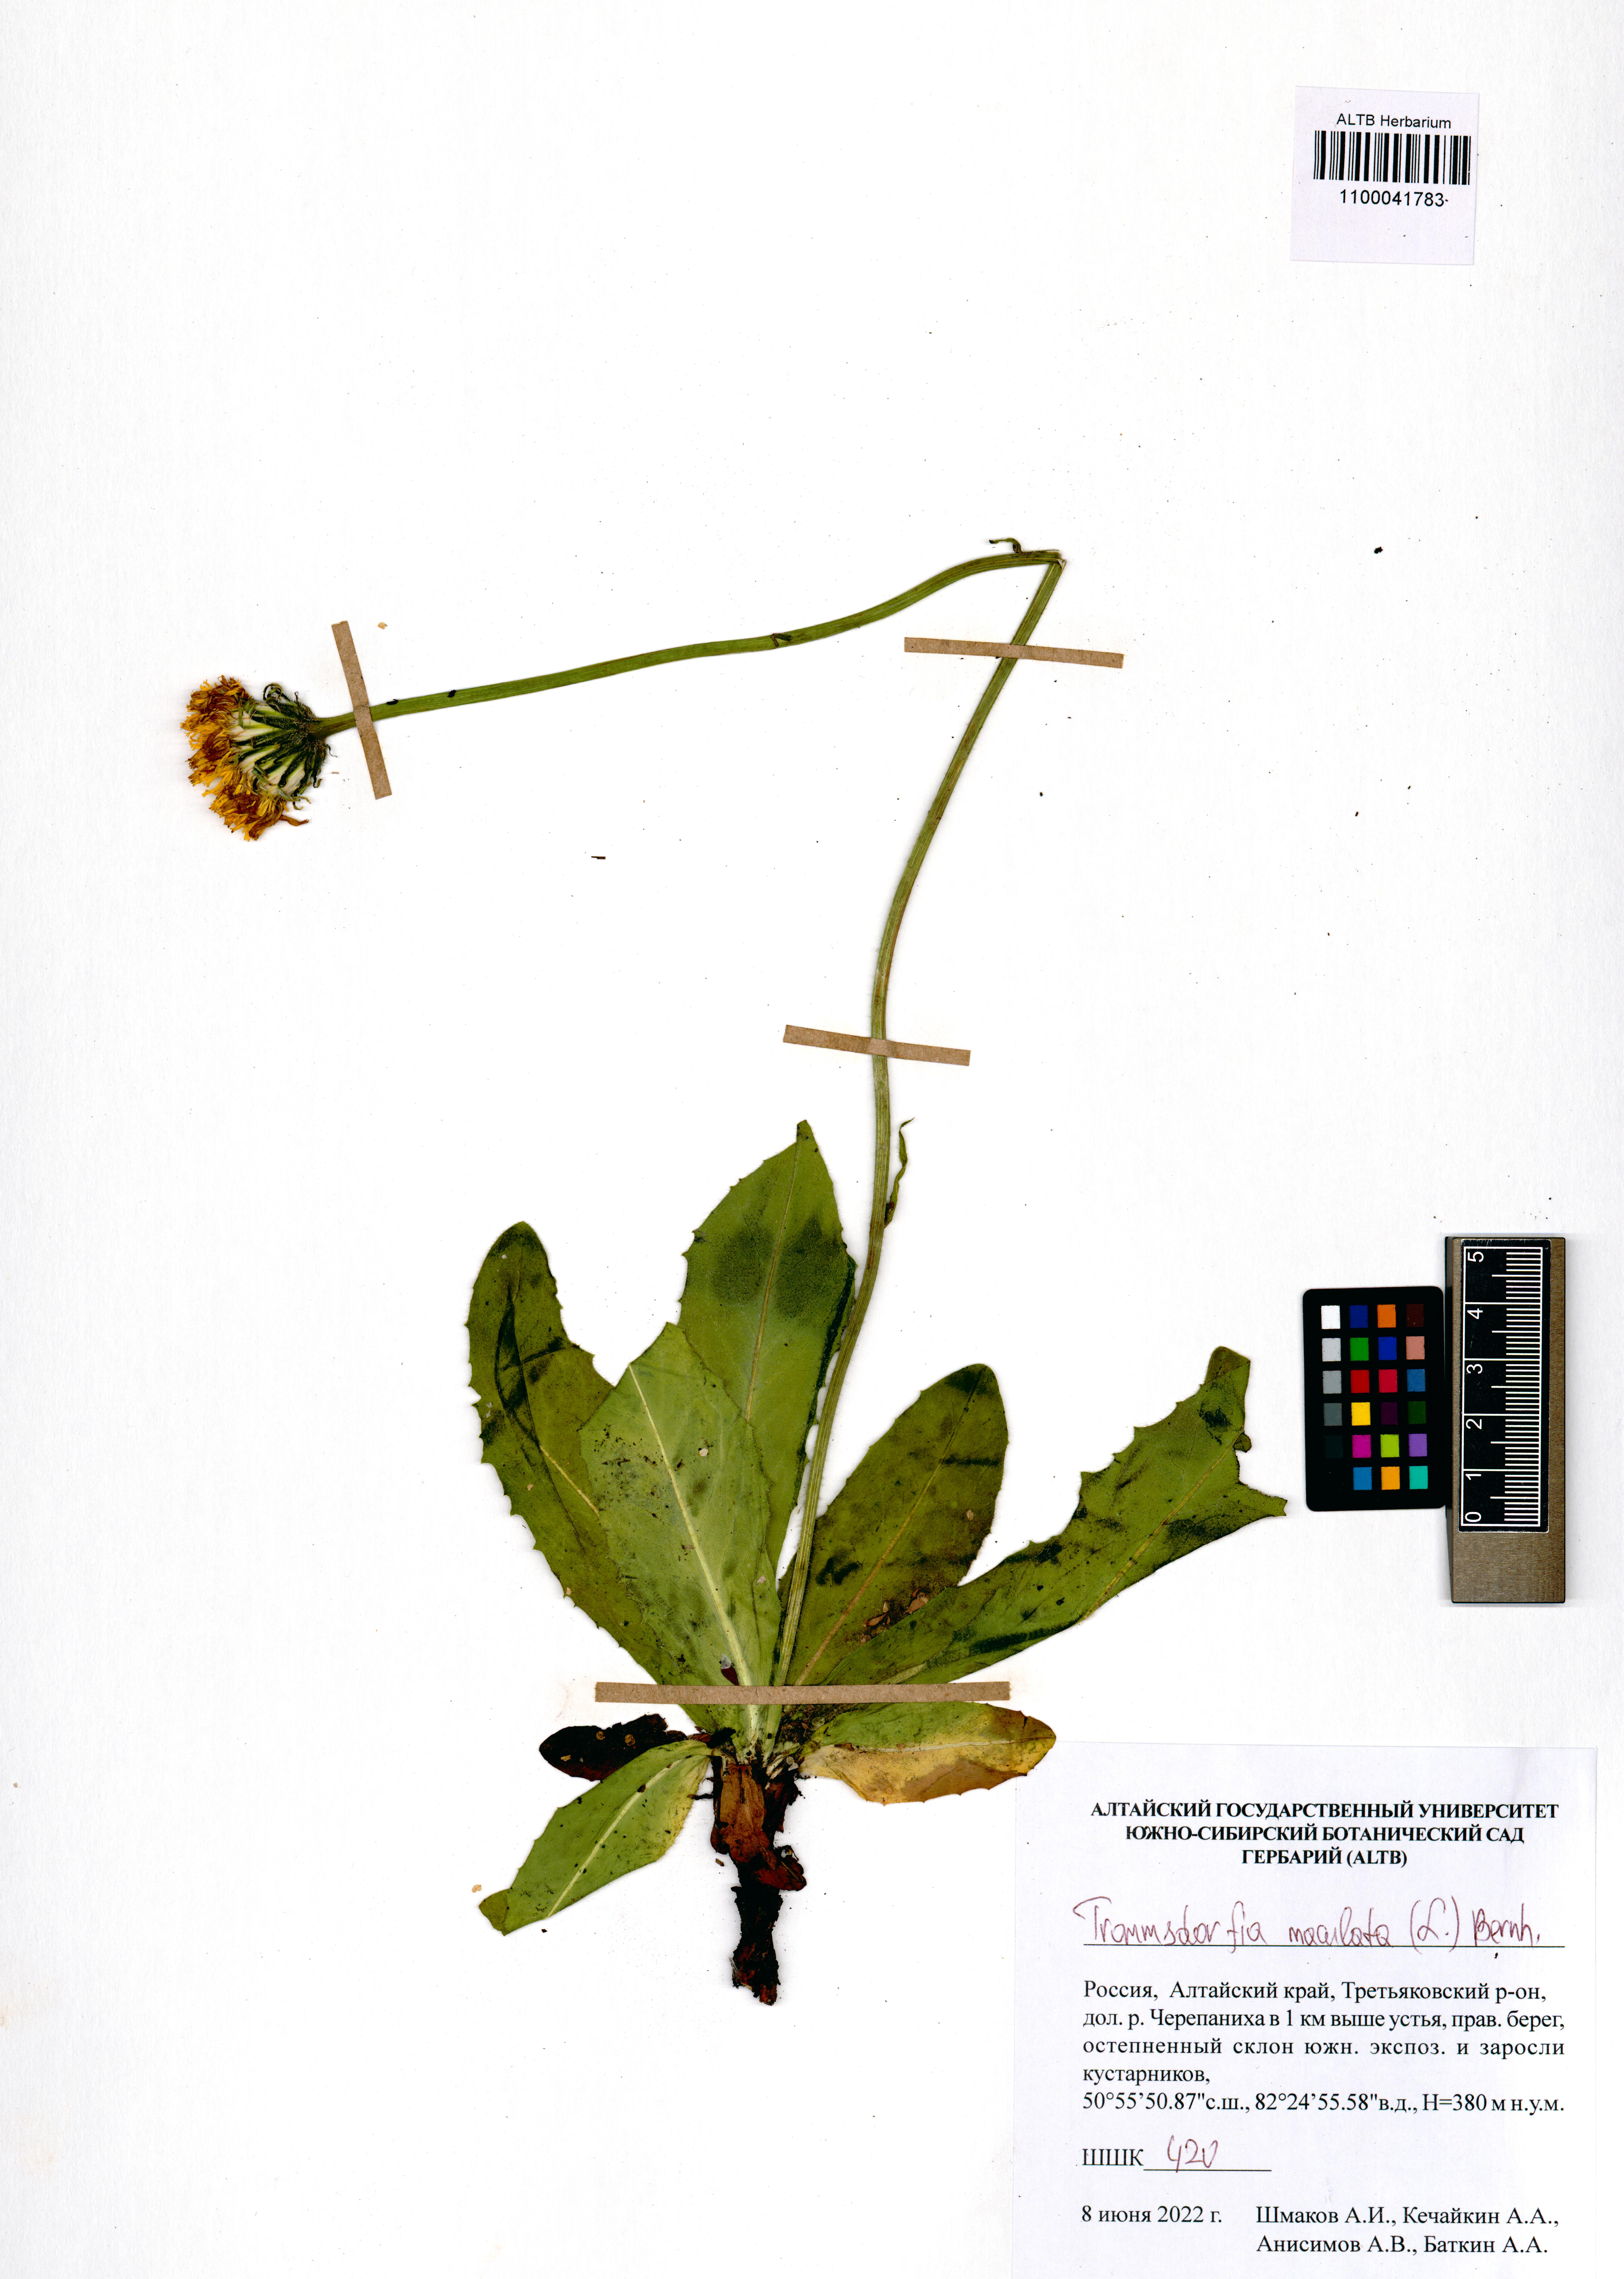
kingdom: Plantae
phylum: Tracheophyta
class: Magnoliopsida
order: Asterales
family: Asteraceae
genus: Trommsdorffia
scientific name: Trommsdorffia maculata
